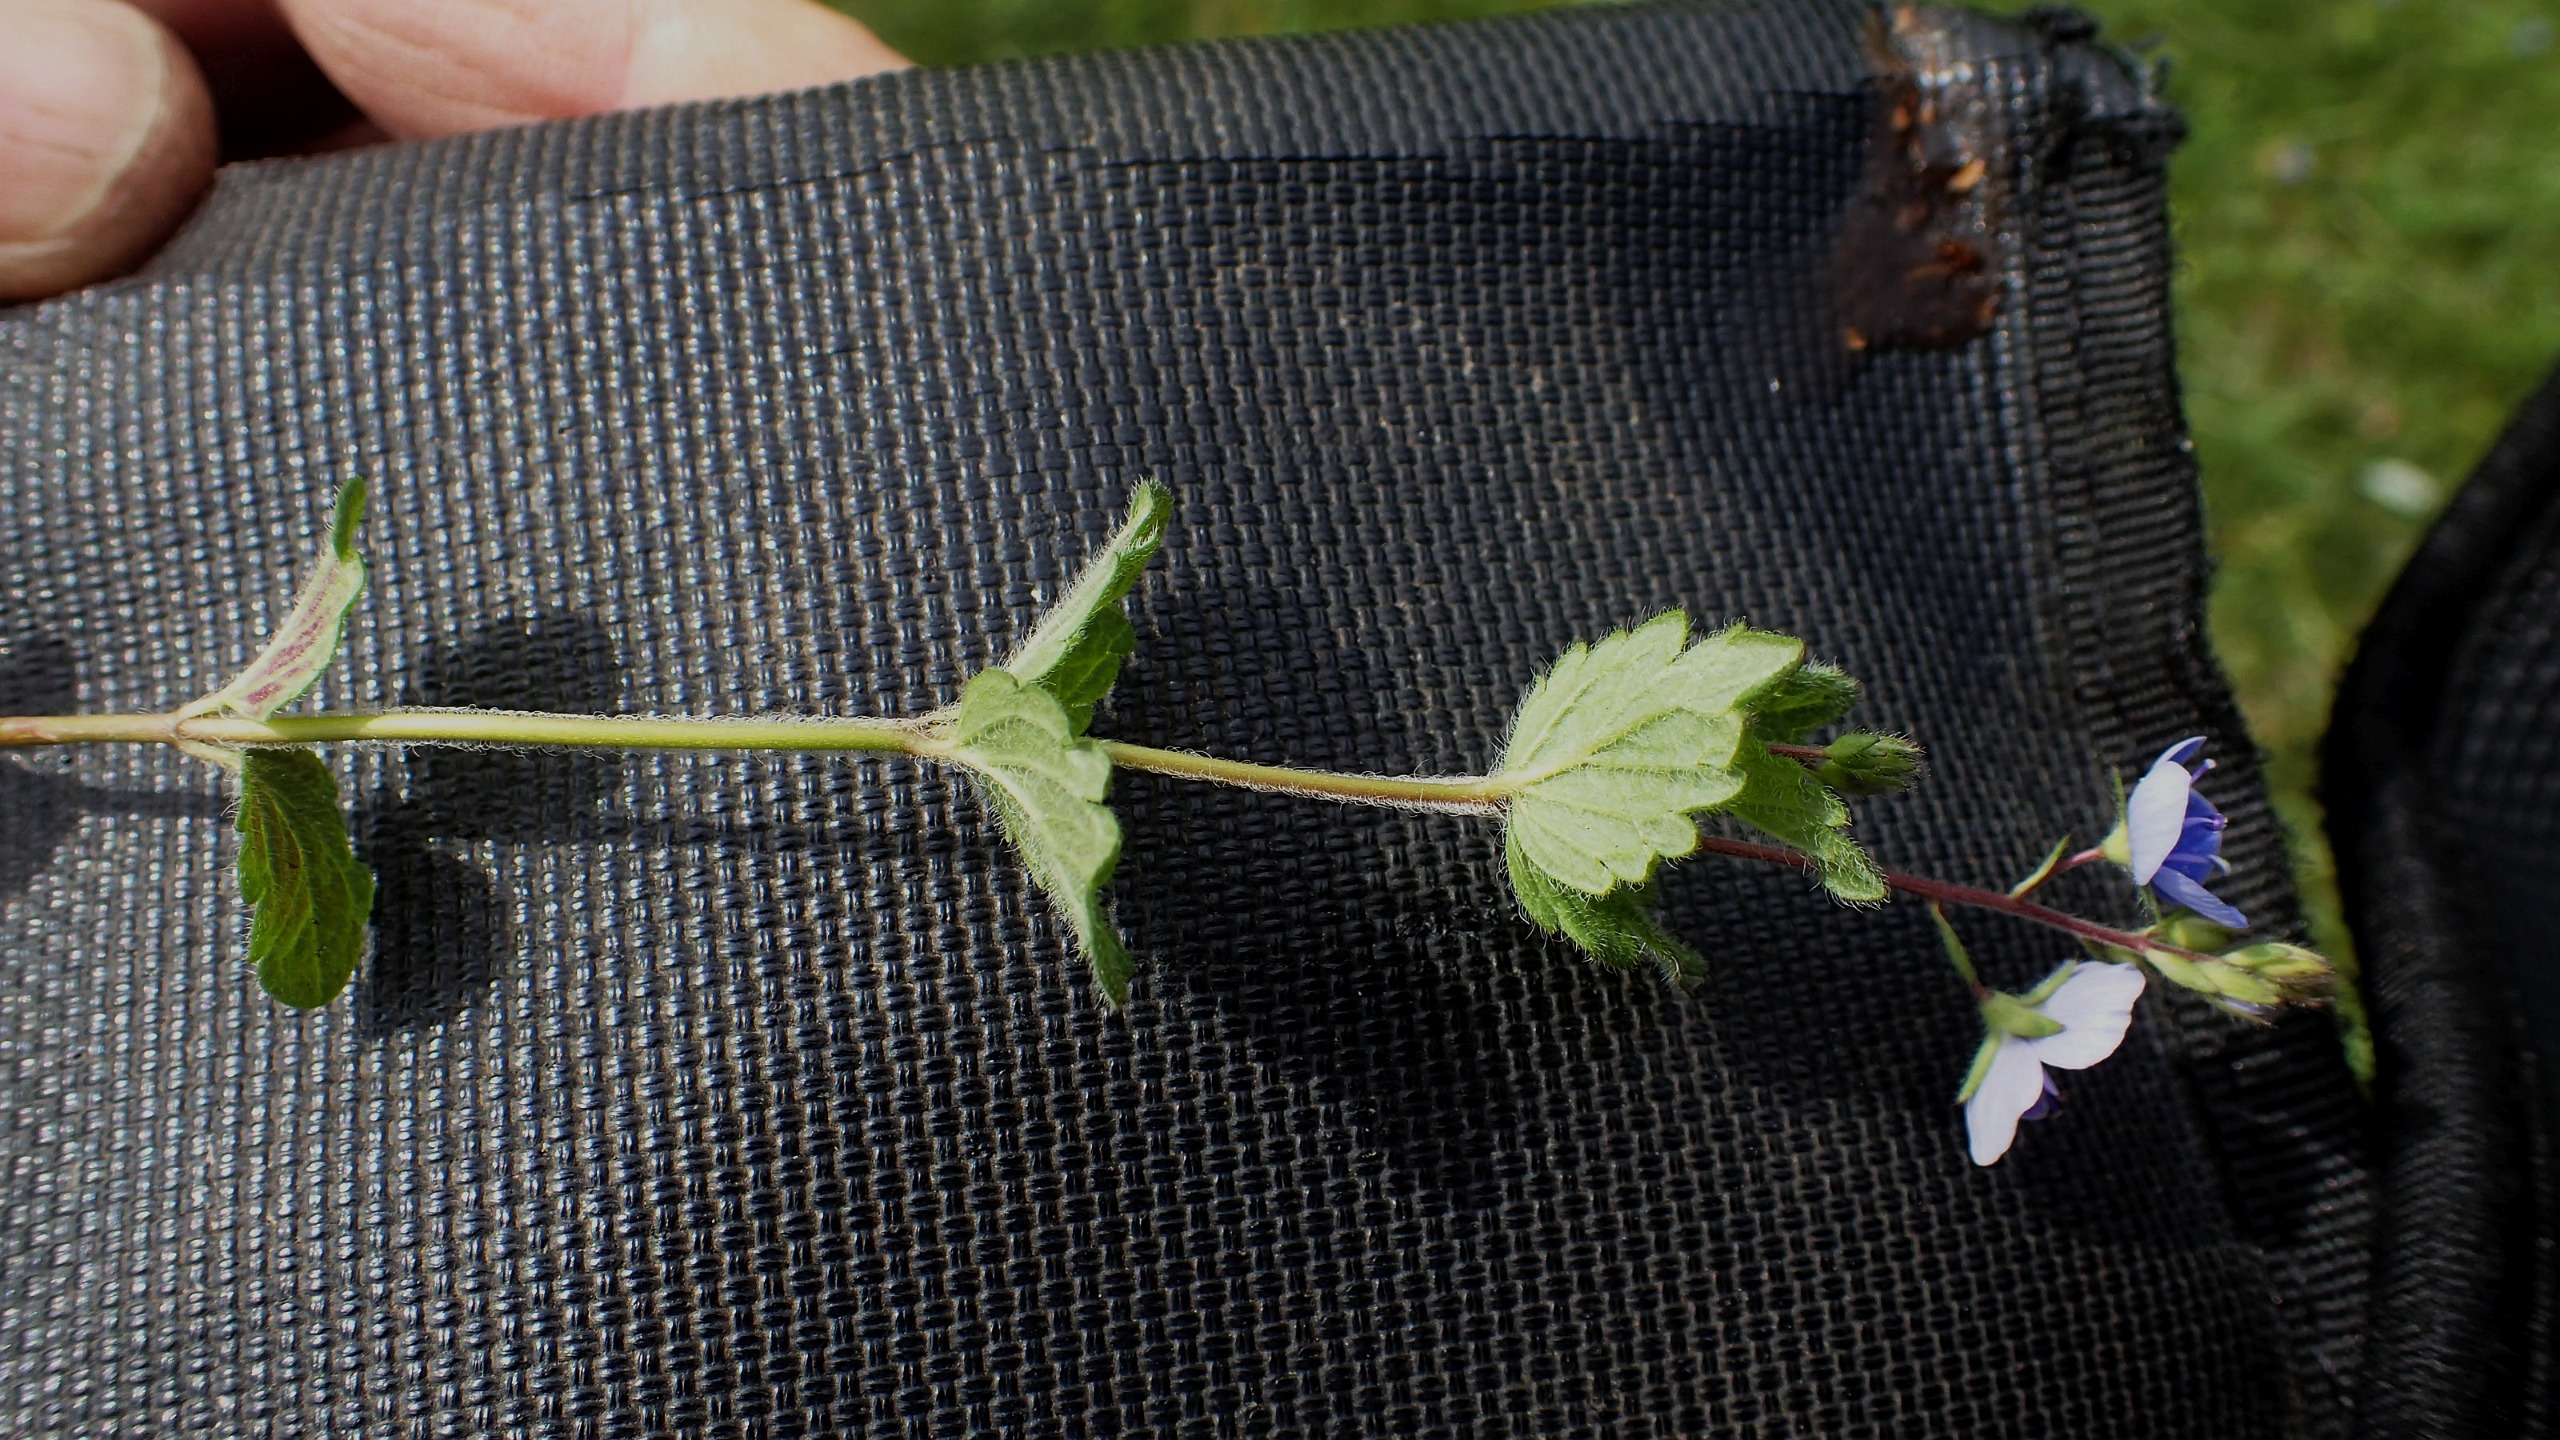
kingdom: Plantae
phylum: Tracheophyta
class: Magnoliopsida
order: Lamiales
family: Plantaginaceae
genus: Veronica
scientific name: Veronica chamaedrys
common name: Tveskægget ærenpris
